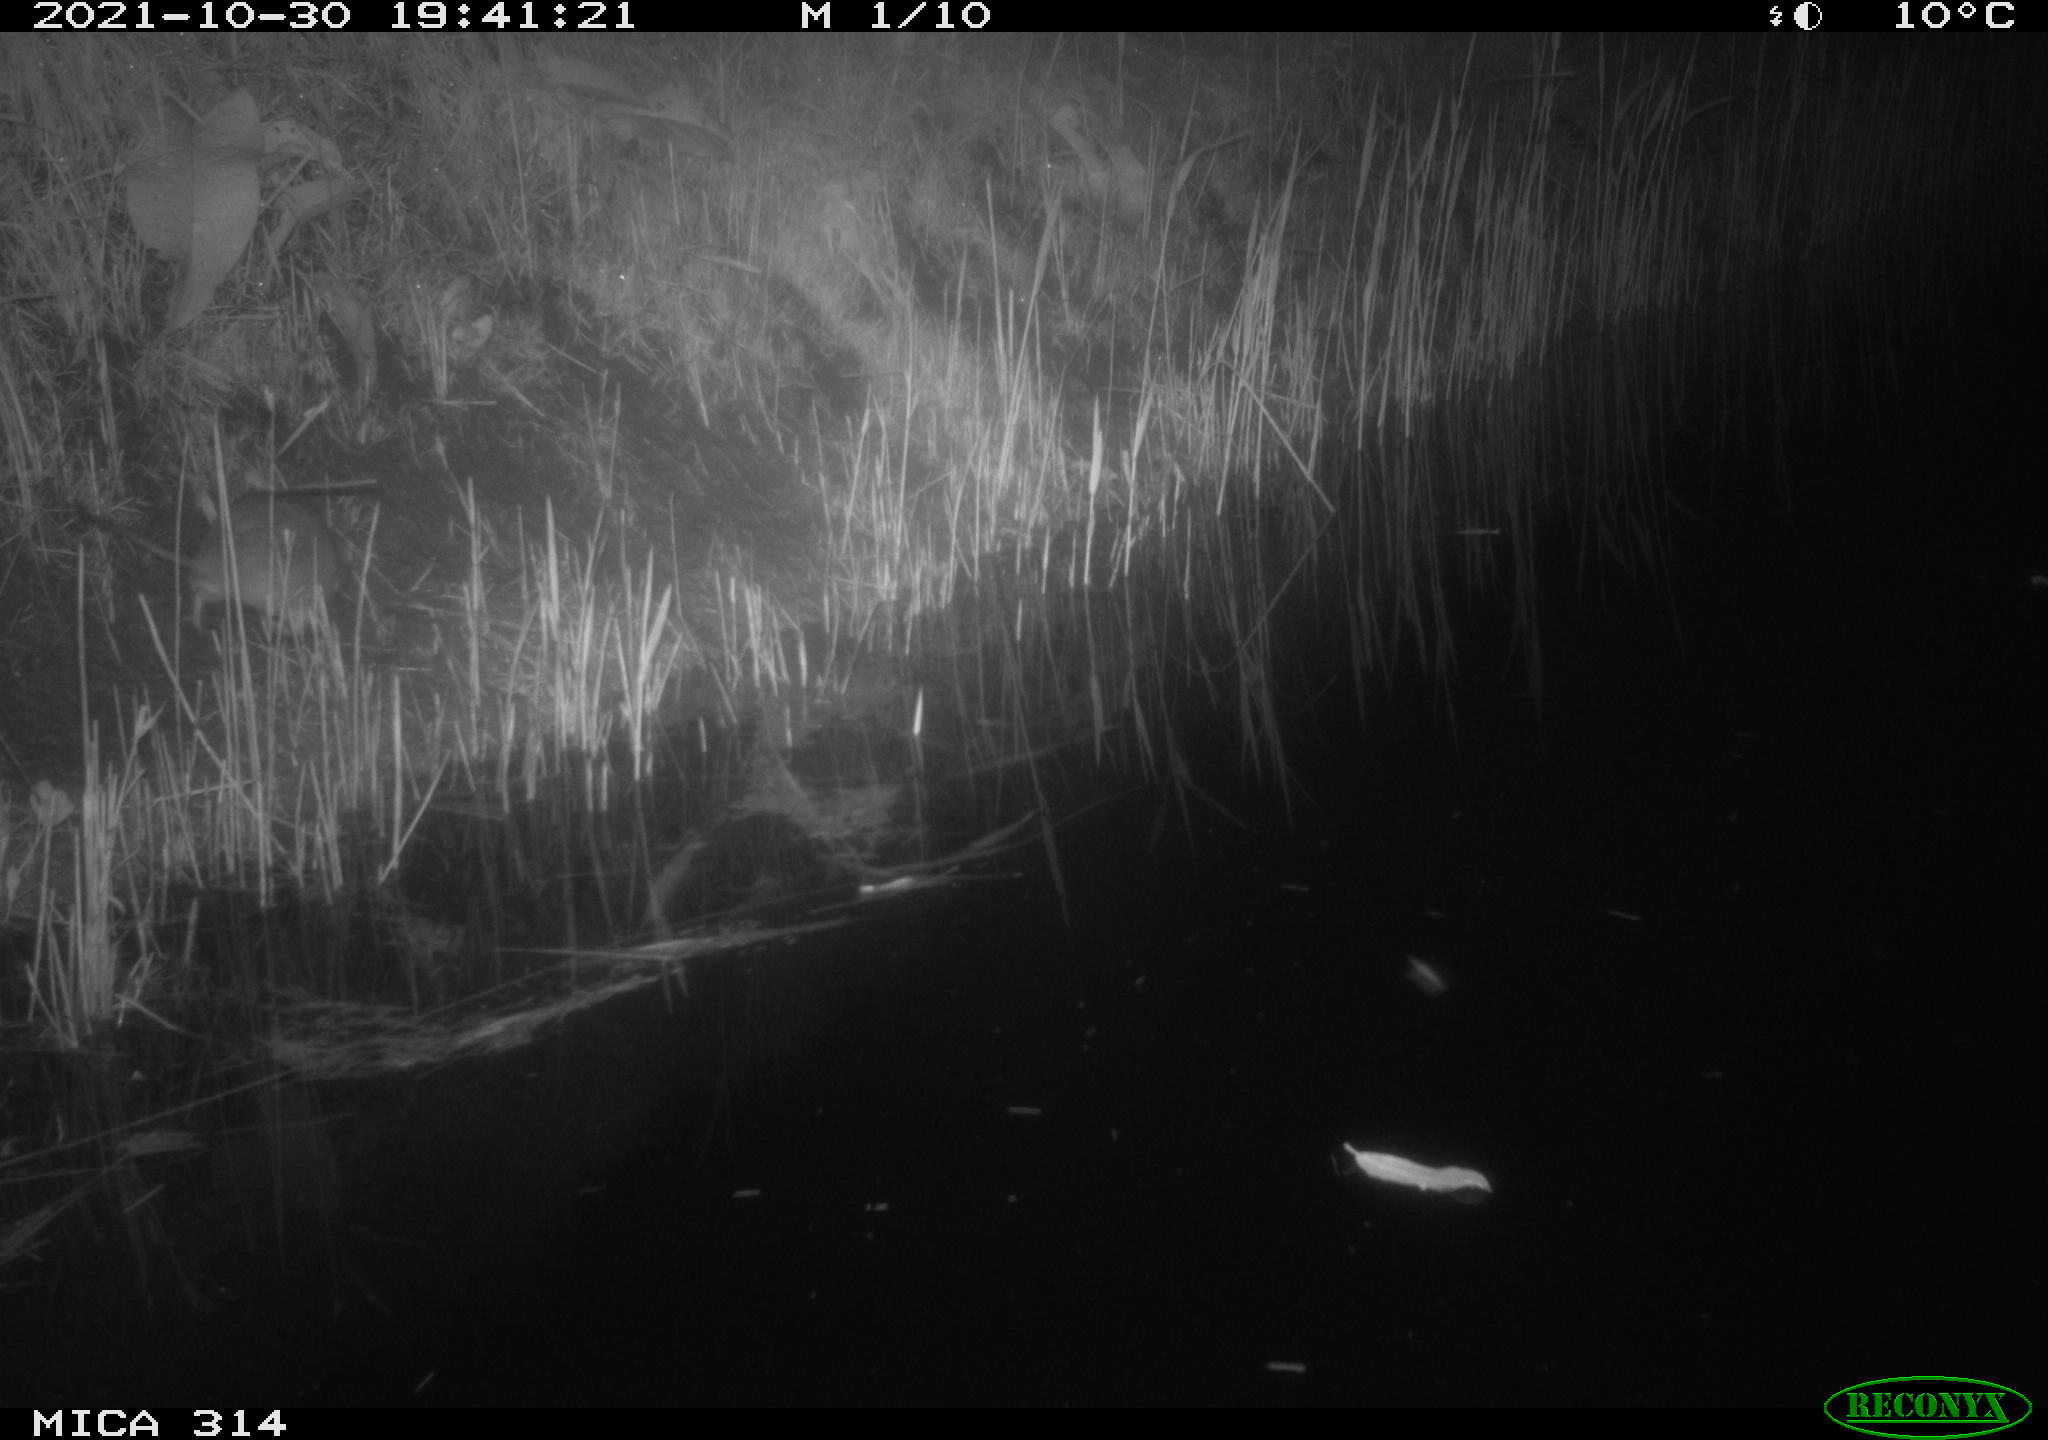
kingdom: Animalia
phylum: Chordata
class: Mammalia
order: Rodentia
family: Muridae
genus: Rattus
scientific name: Rattus norvegicus
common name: Brown rat
